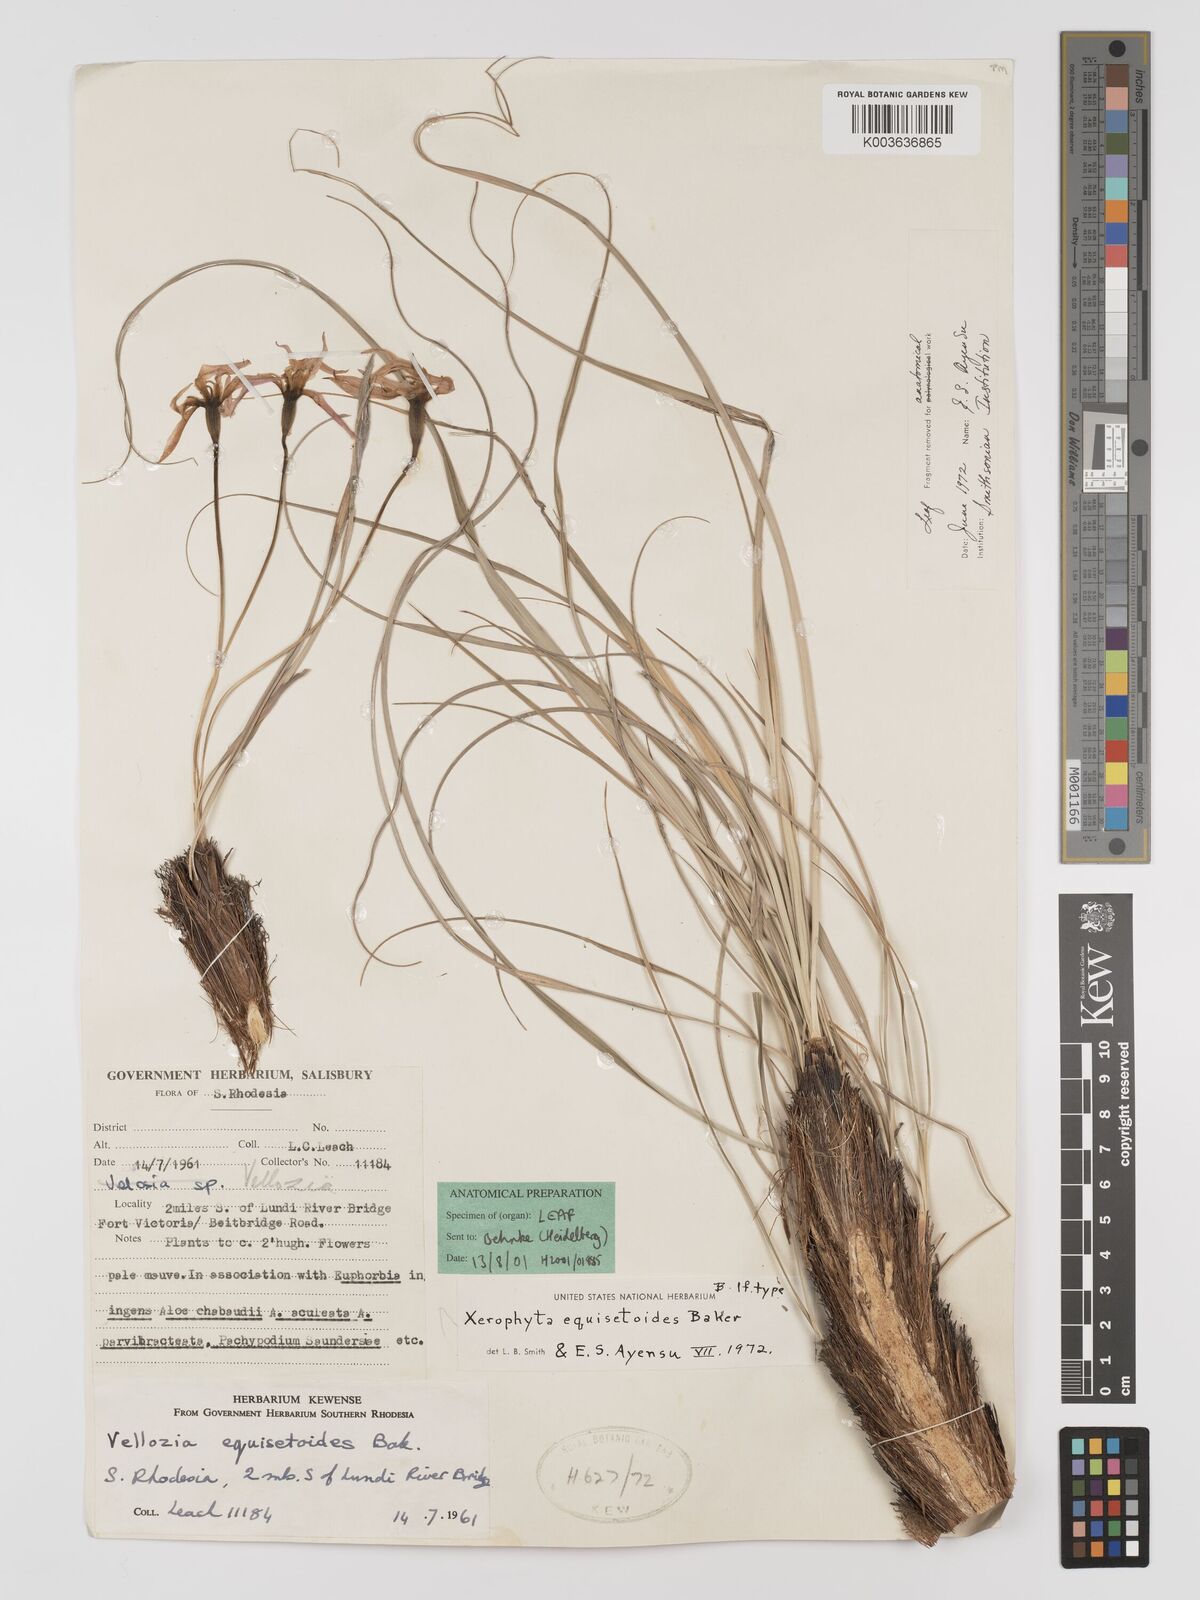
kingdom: Plantae
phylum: Tracheophyta
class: Liliopsida
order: Pandanales
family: Velloziaceae
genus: Xerophyta
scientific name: Xerophyta equisetoides
